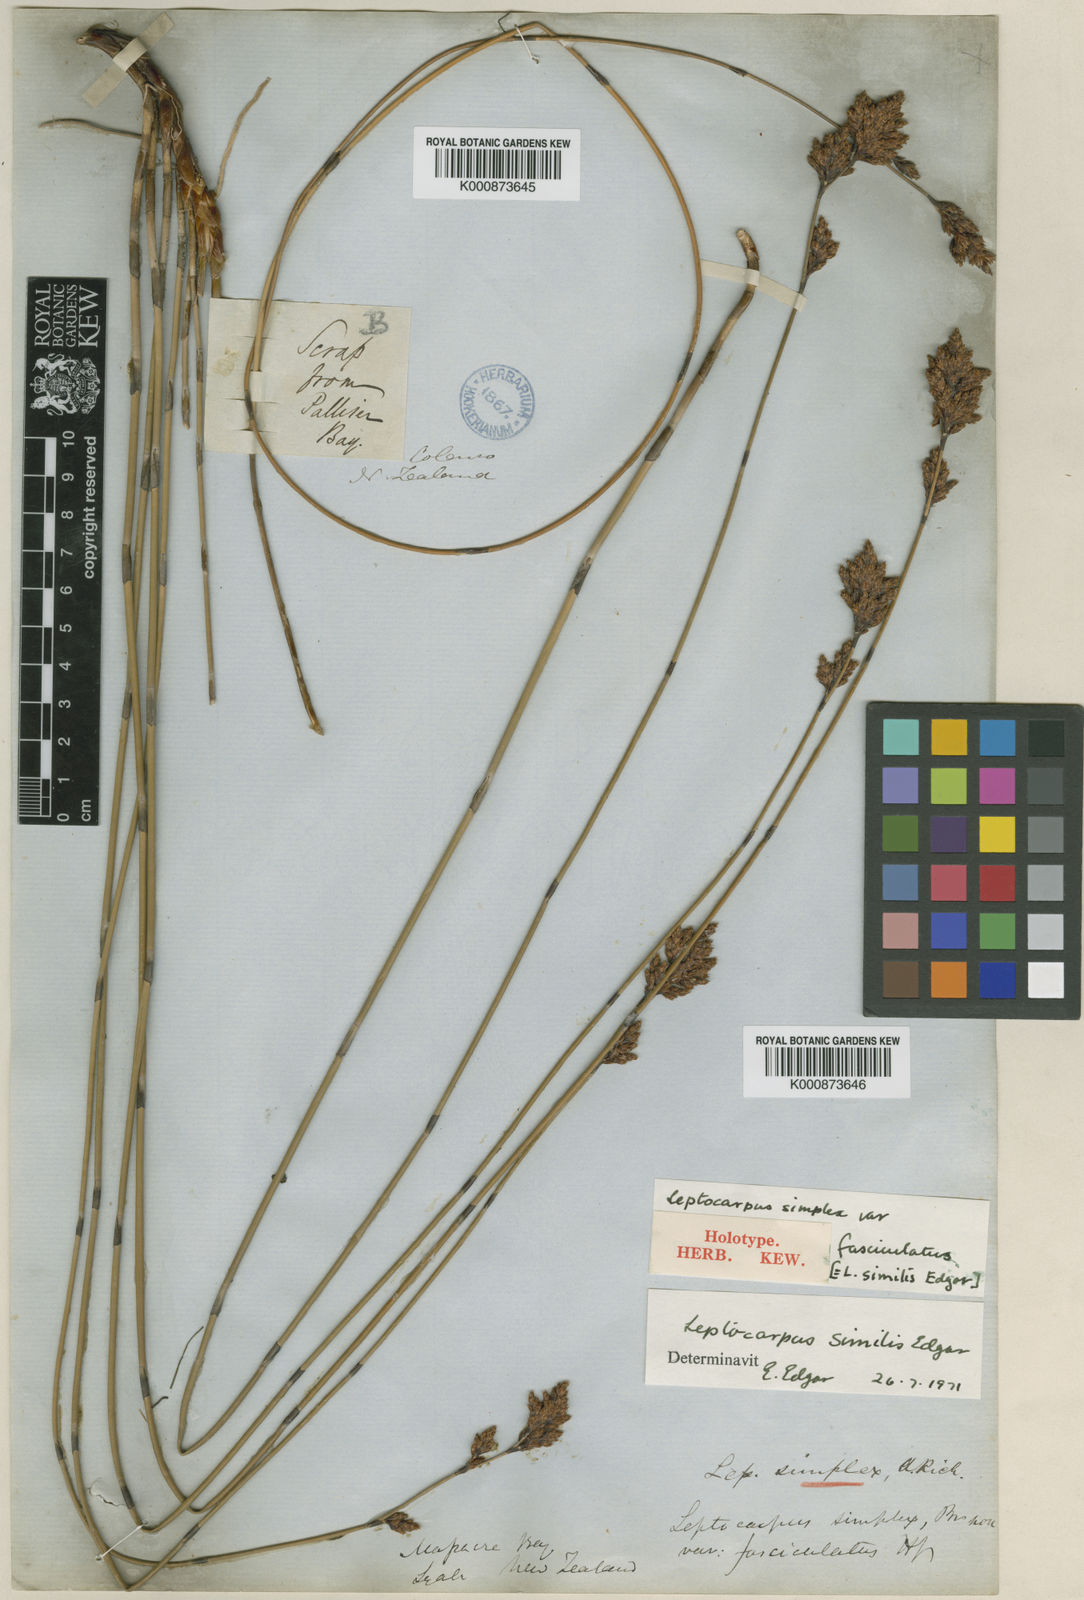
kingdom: Plantae
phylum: Tracheophyta
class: Liliopsida
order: Poales
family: Restionaceae
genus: Apodasmia
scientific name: Apodasmia similis
